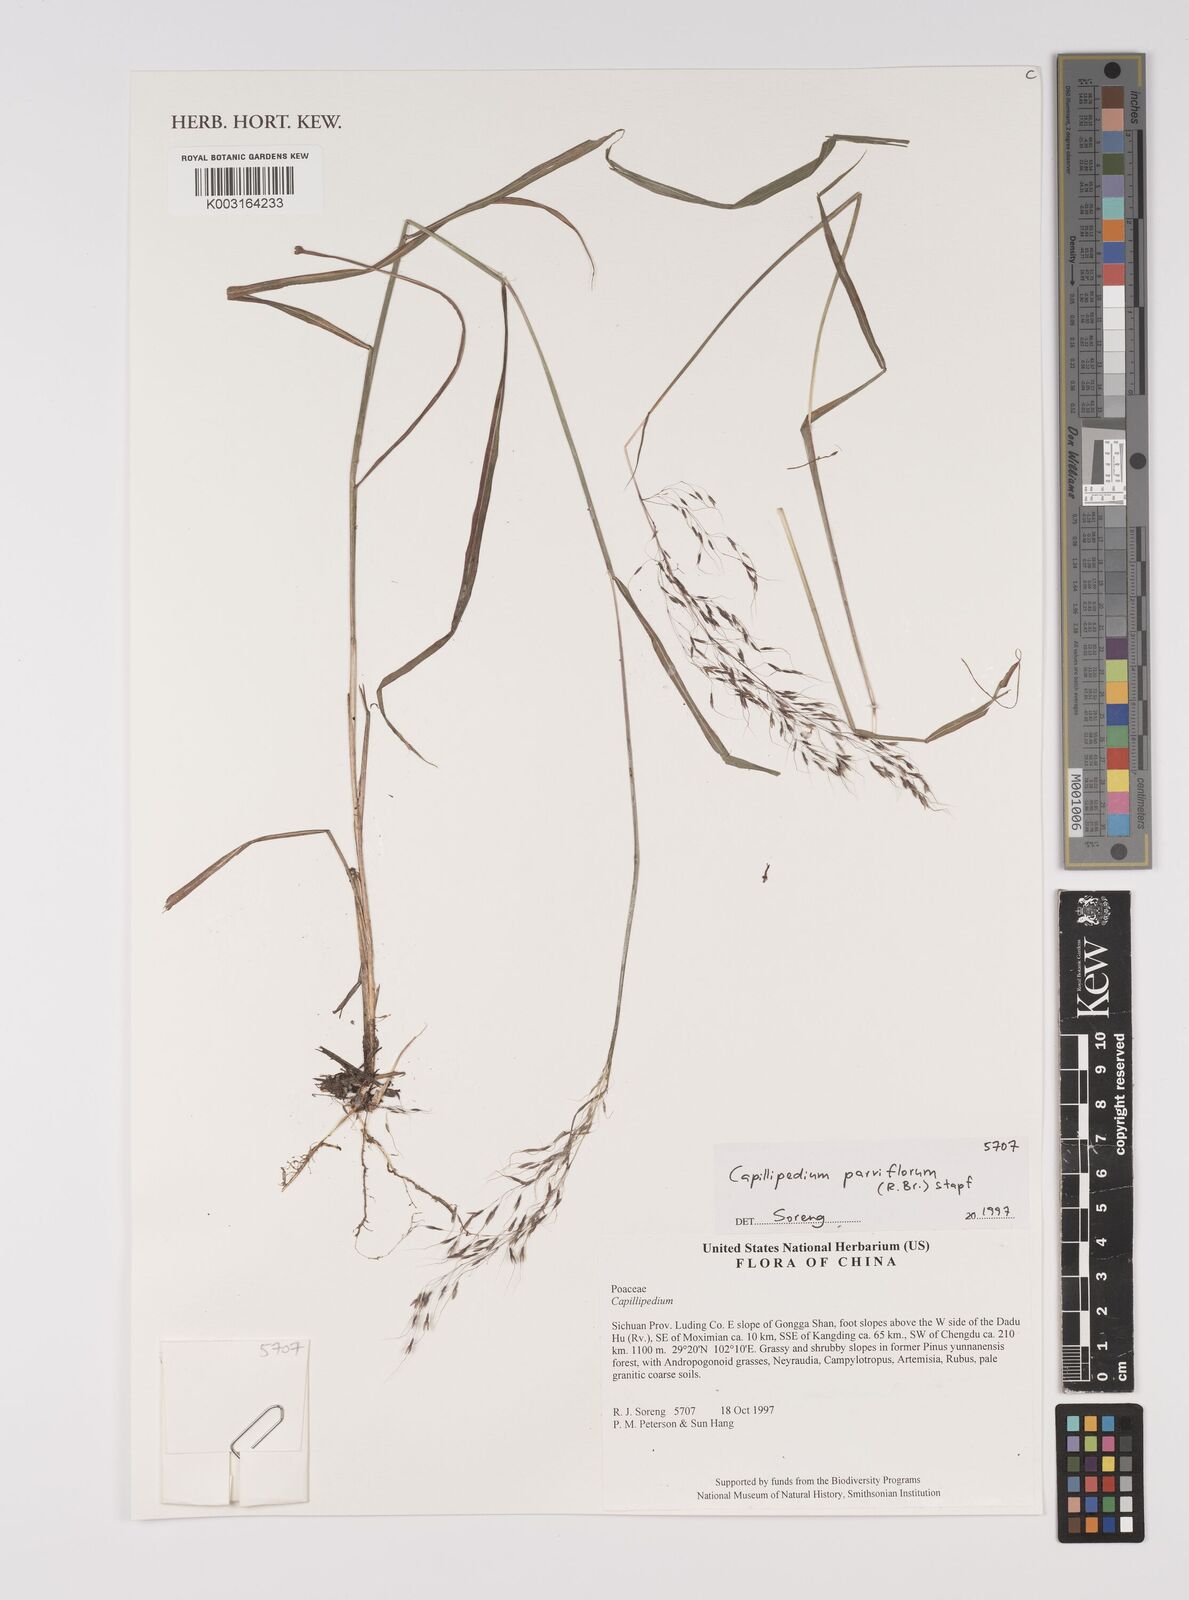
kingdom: Plantae
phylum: Tracheophyta
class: Liliopsida
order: Poales
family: Poaceae
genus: Capillipedium
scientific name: Capillipedium parviflorum
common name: Golden-beard
